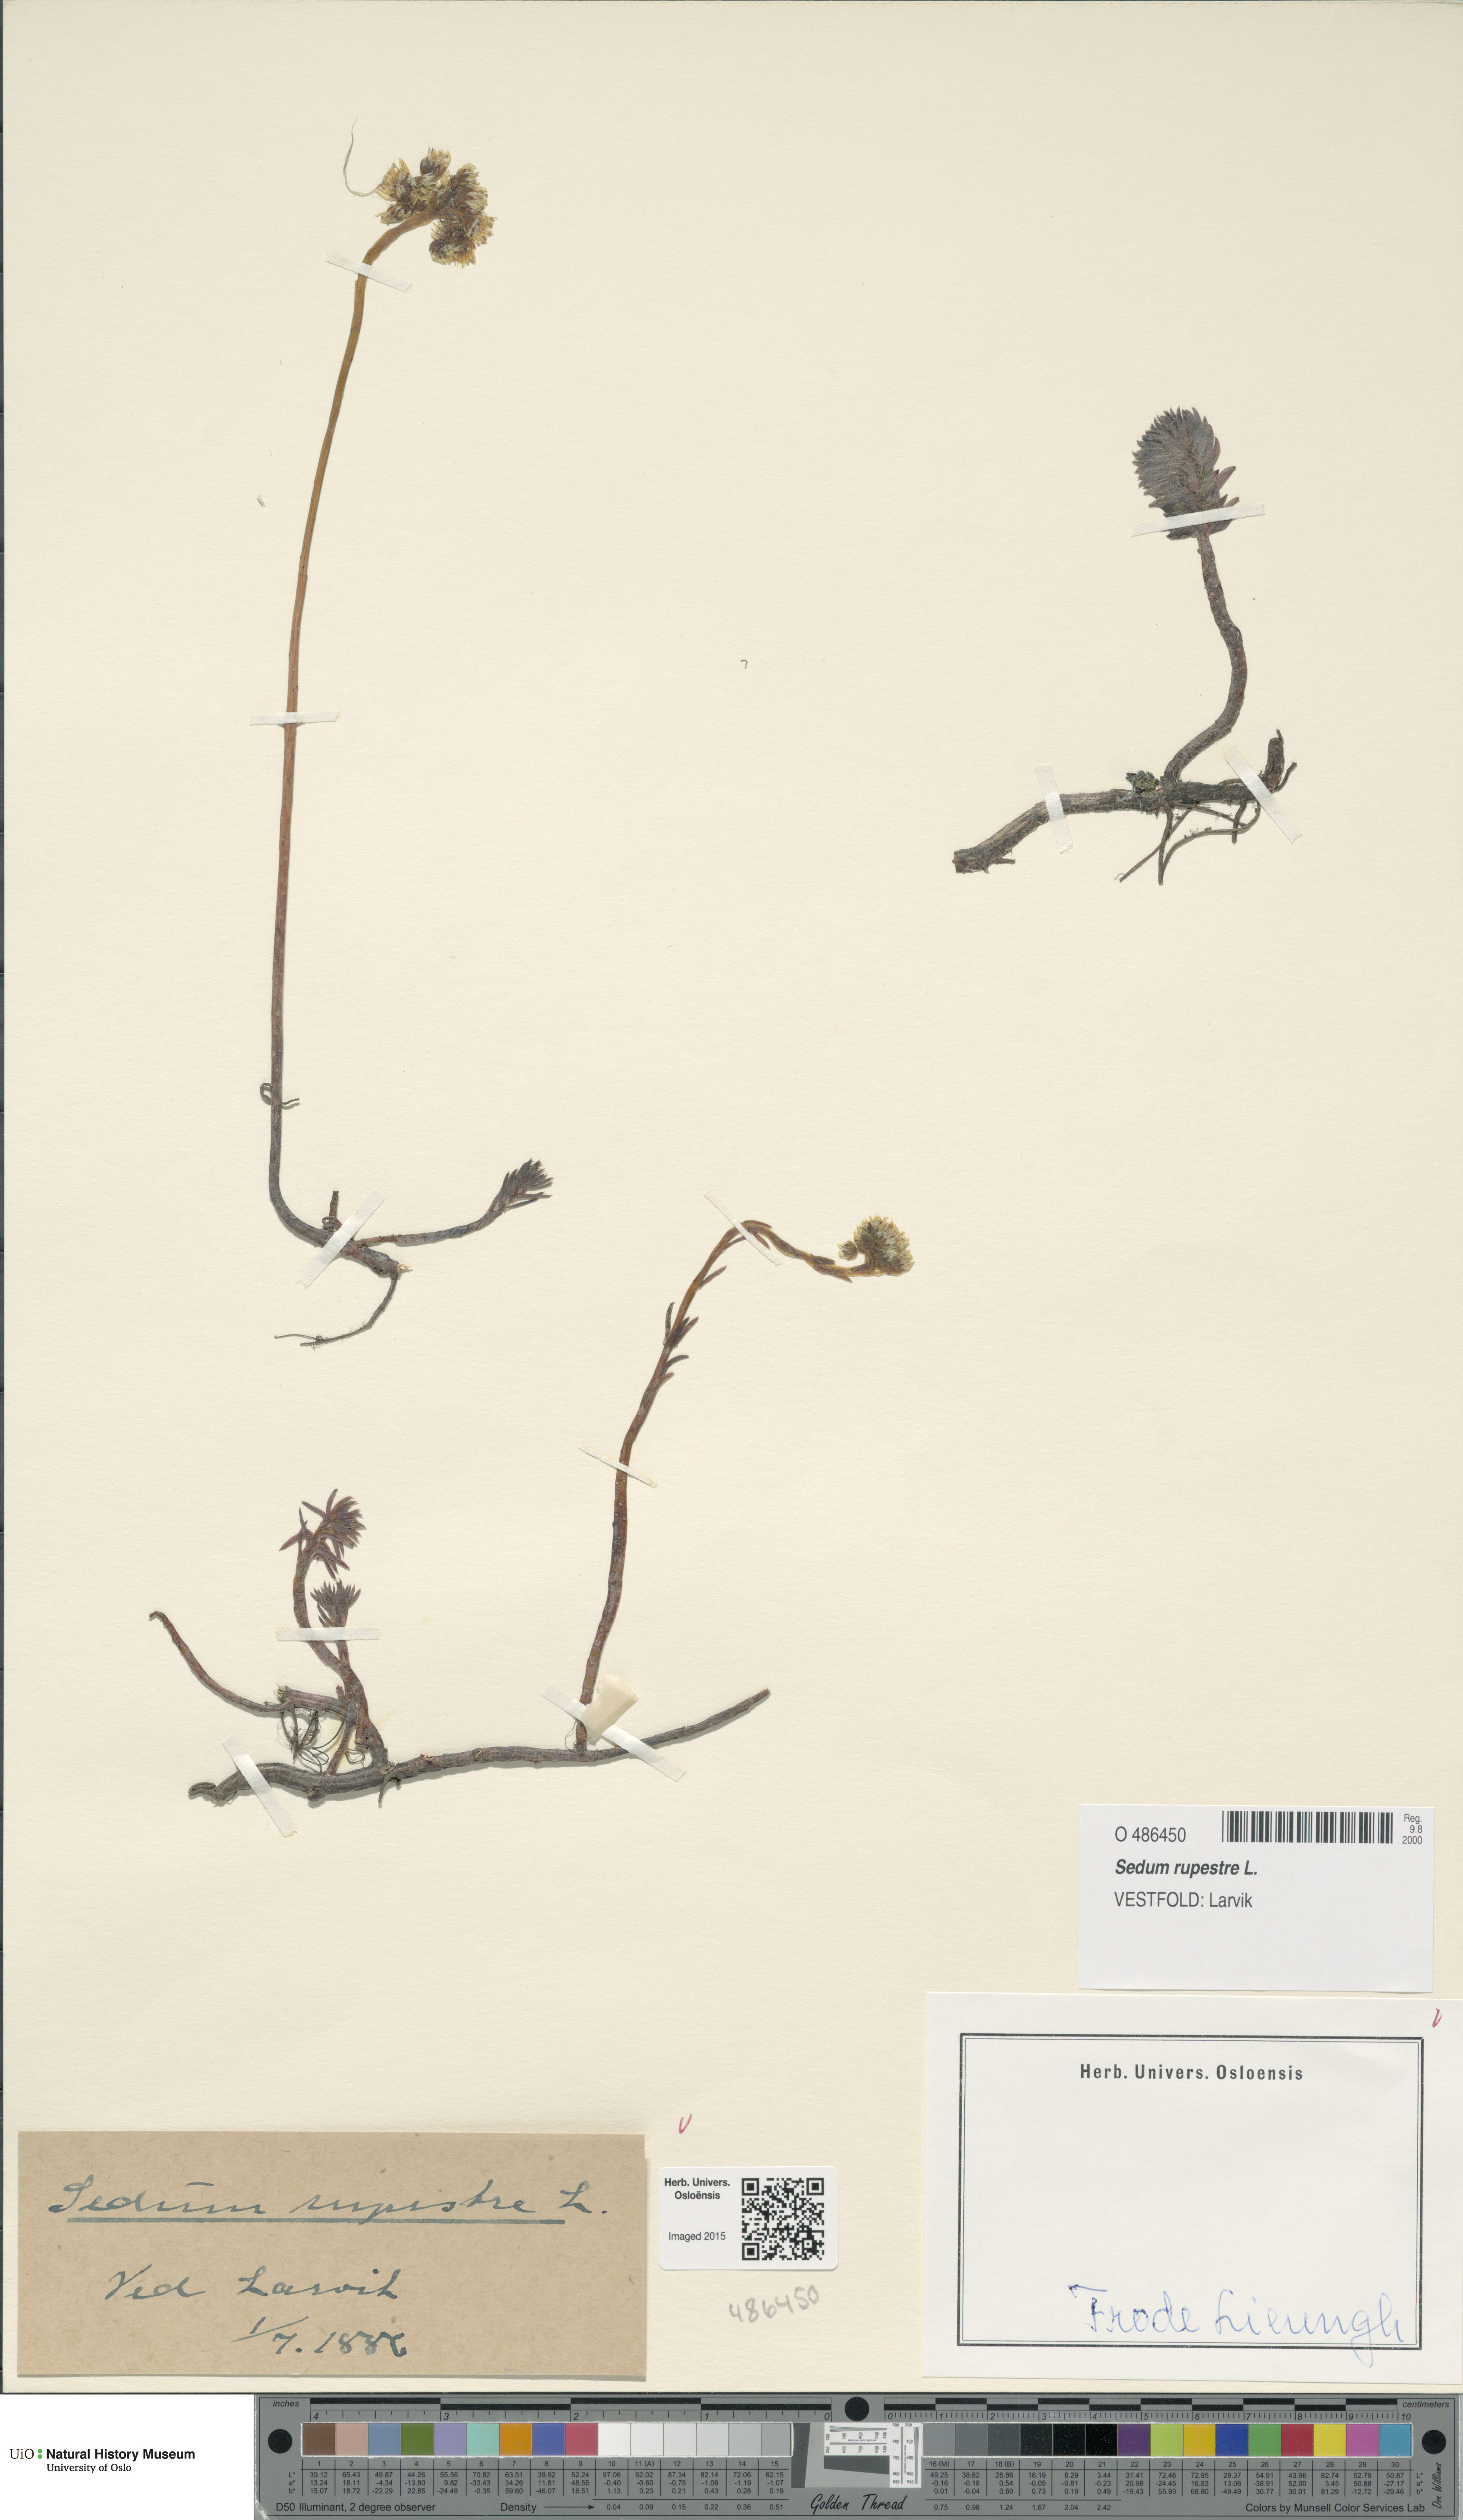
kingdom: Plantae
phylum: Tracheophyta
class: Magnoliopsida
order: Saxifragales
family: Crassulaceae
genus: Petrosedum
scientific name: Petrosedum rupestre
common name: Jenny's stonecrop
